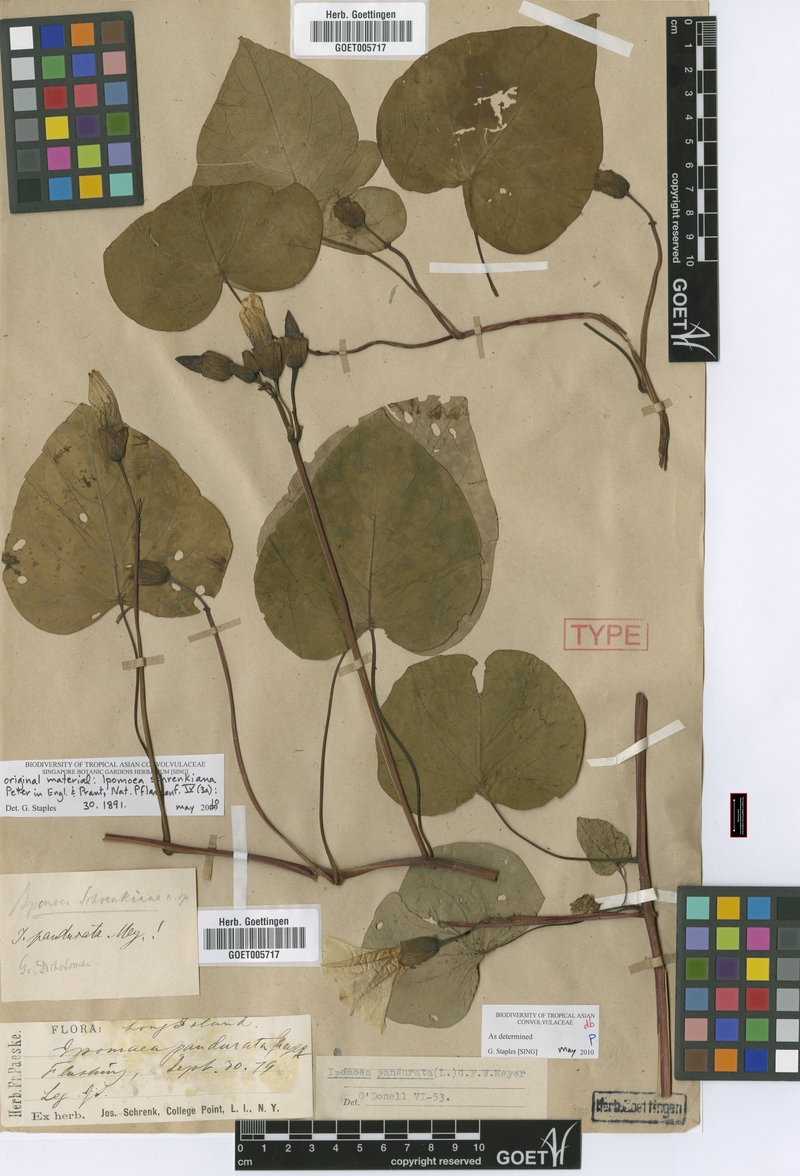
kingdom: Plantae
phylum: Tracheophyta
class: Magnoliopsida
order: Solanales
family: Convolvulaceae
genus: Ipomoea
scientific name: Ipomoea pandurata
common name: Man-of-the-earth
